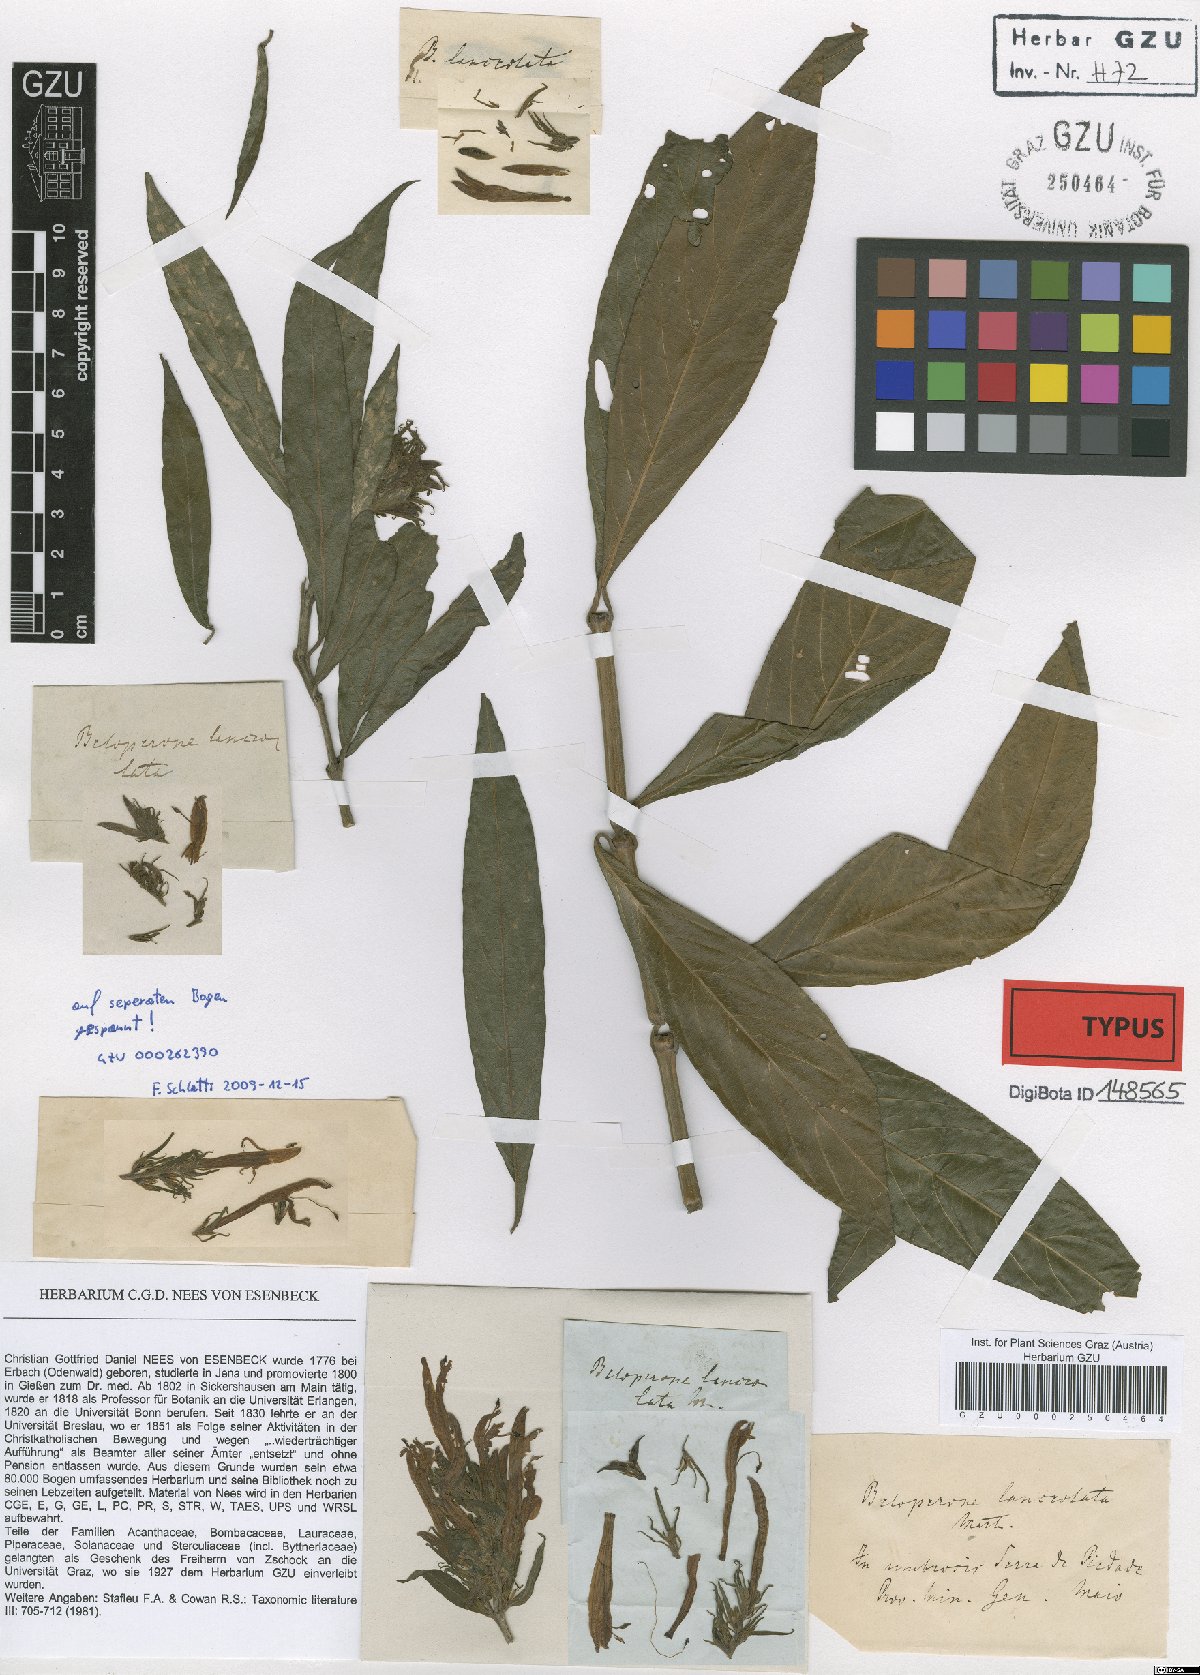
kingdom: Plantae
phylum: Tracheophyta
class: Magnoliopsida
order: Lamiales
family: Acanthaceae
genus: Justicia
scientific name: Justicia minensis
